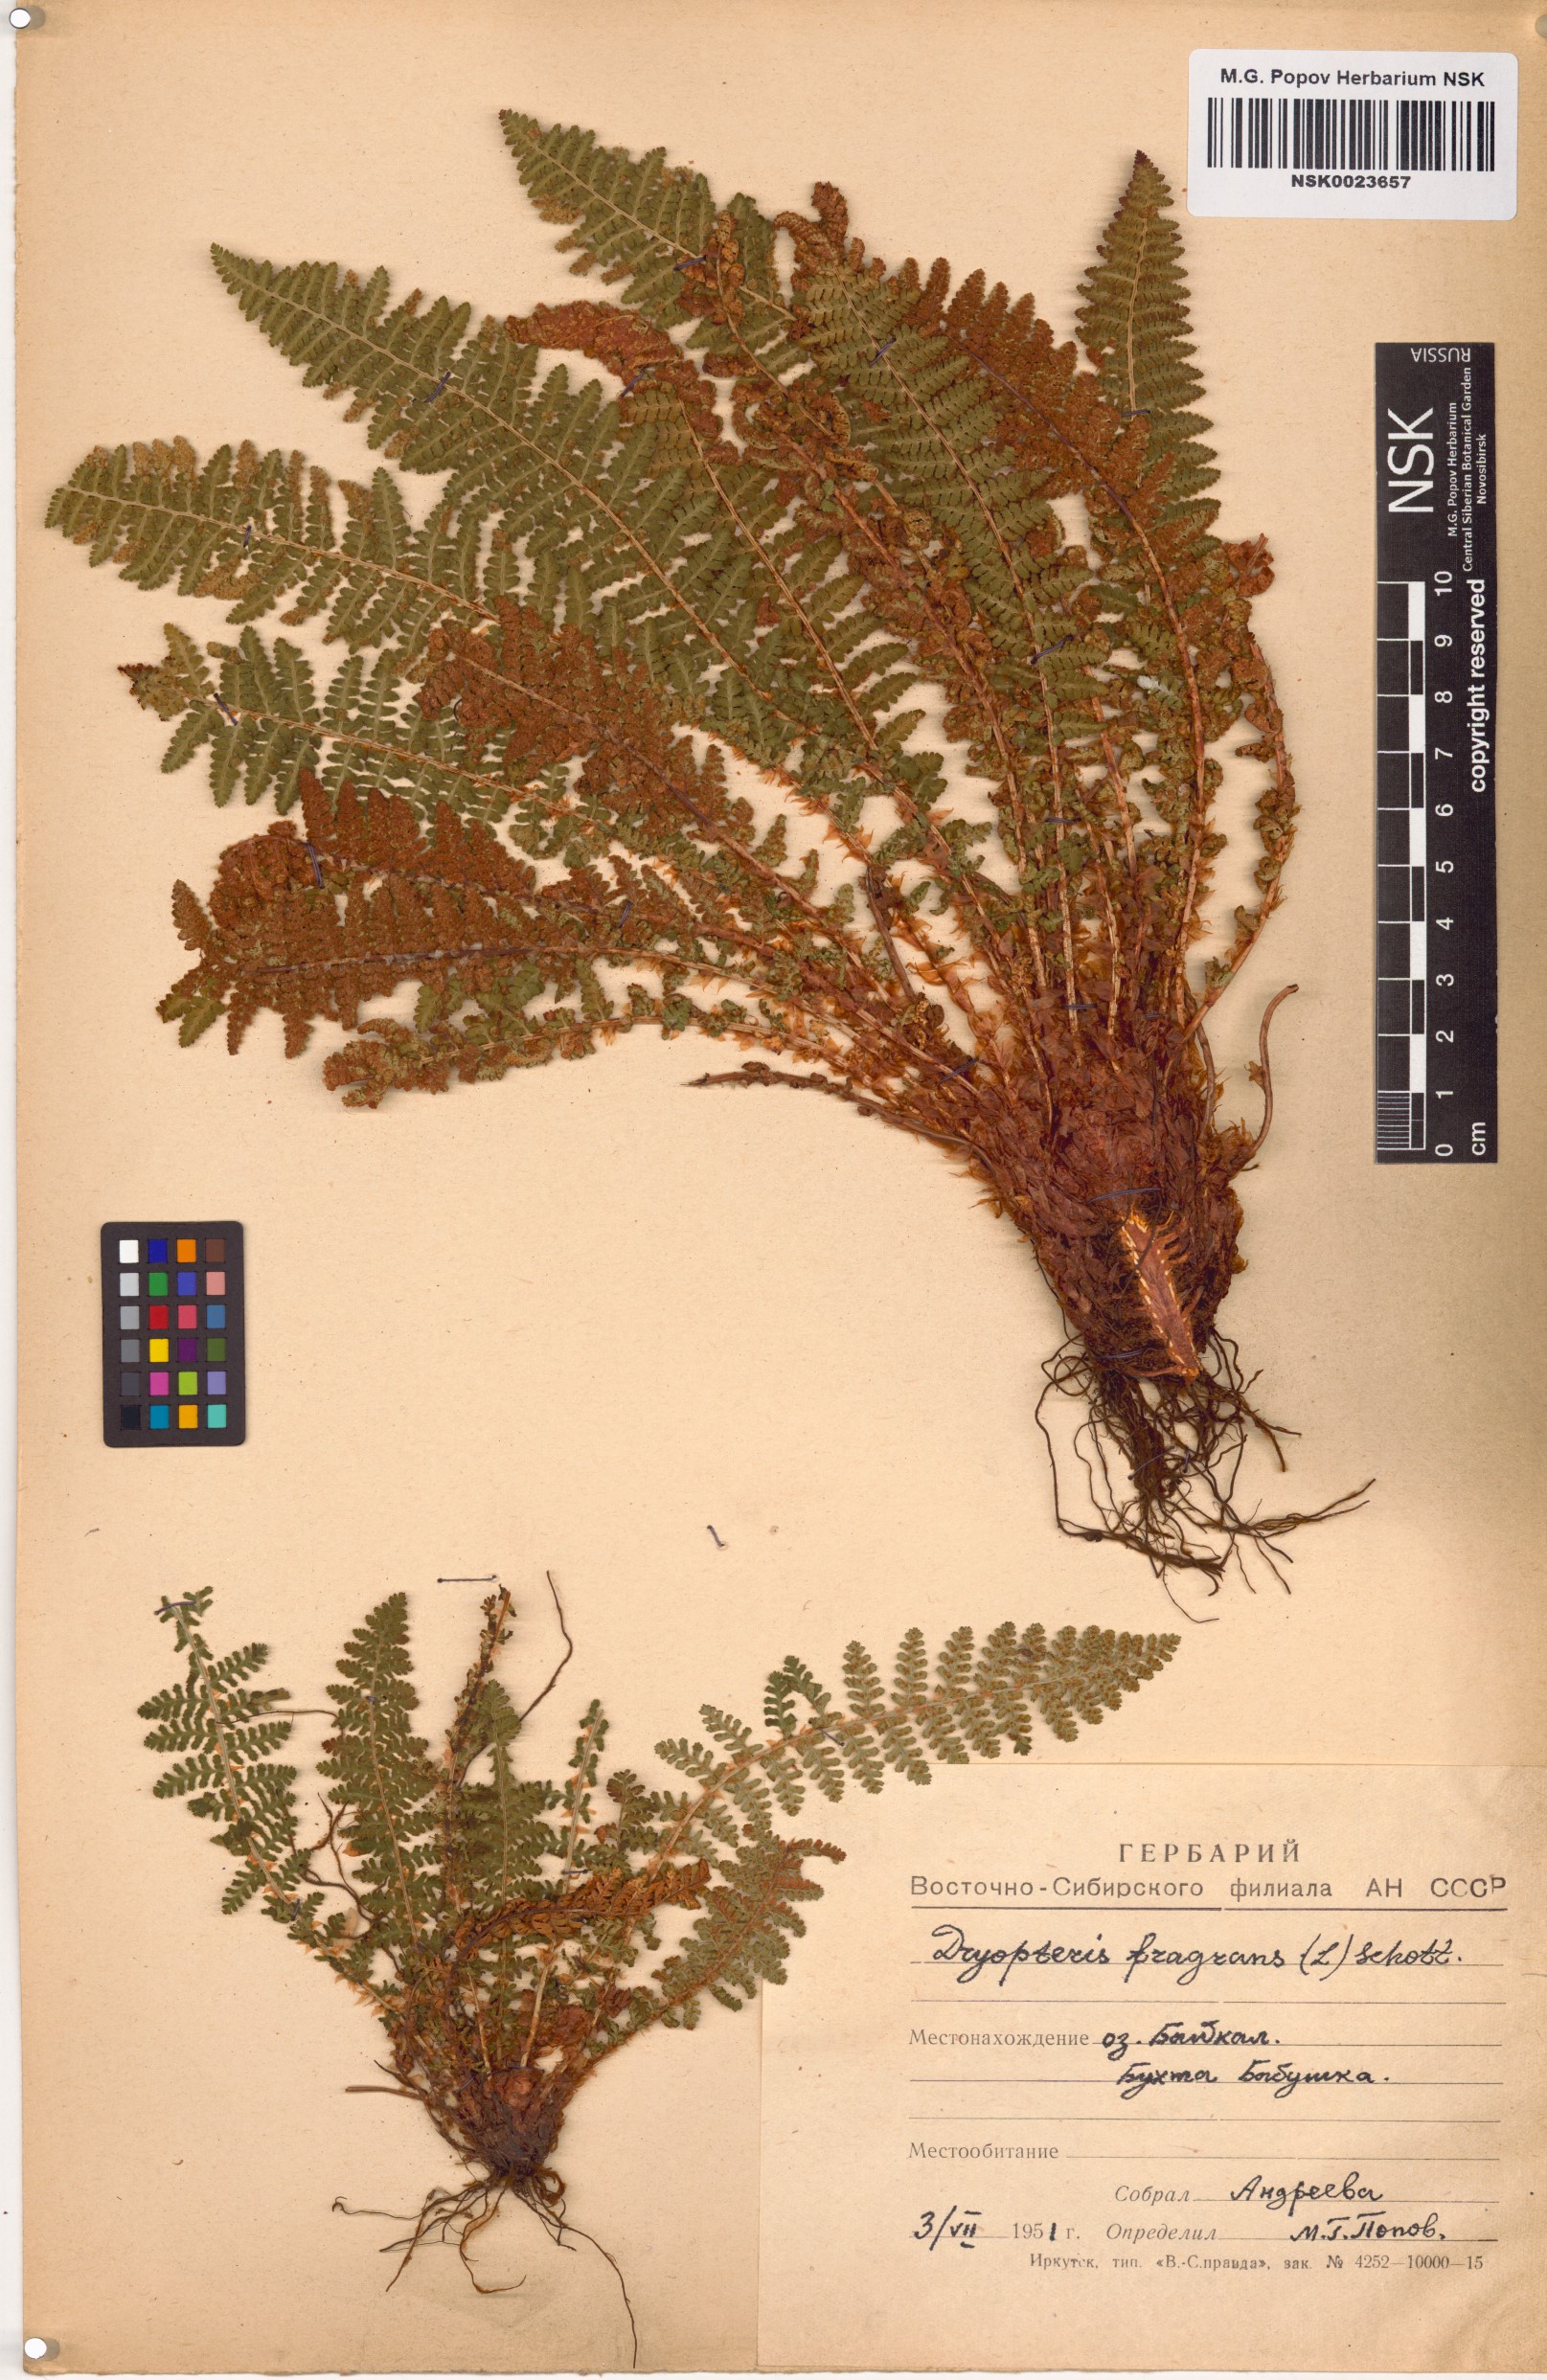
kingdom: Plantae
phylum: Tracheophyta
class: Polypodiopsida
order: Polypodiales
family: Dryopteridaceae
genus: Dryopteris
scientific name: Dryopteris fragrans
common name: Fragrant wood fern
